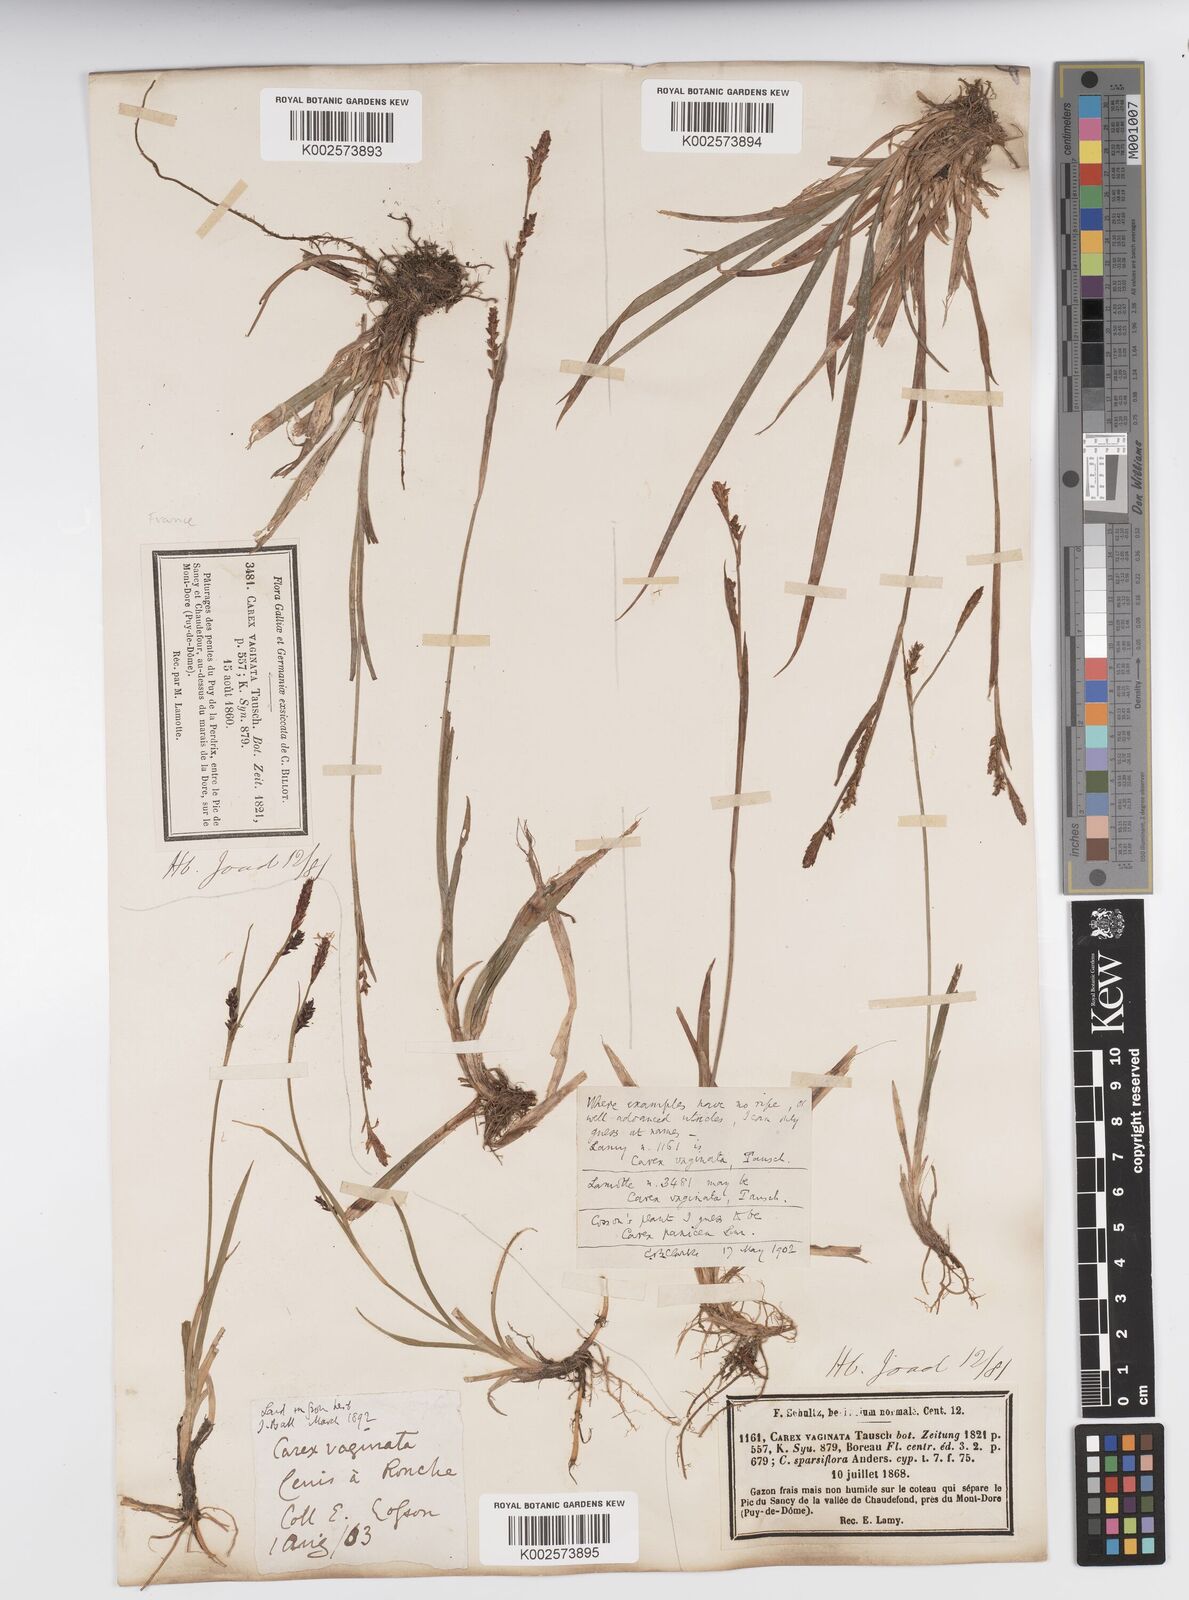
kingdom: Plantae
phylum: Tracheophyta
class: Liliopsida
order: Poales
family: Cyperaceae
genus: Carex
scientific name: Carex vaginata
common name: Sheathed sedge
